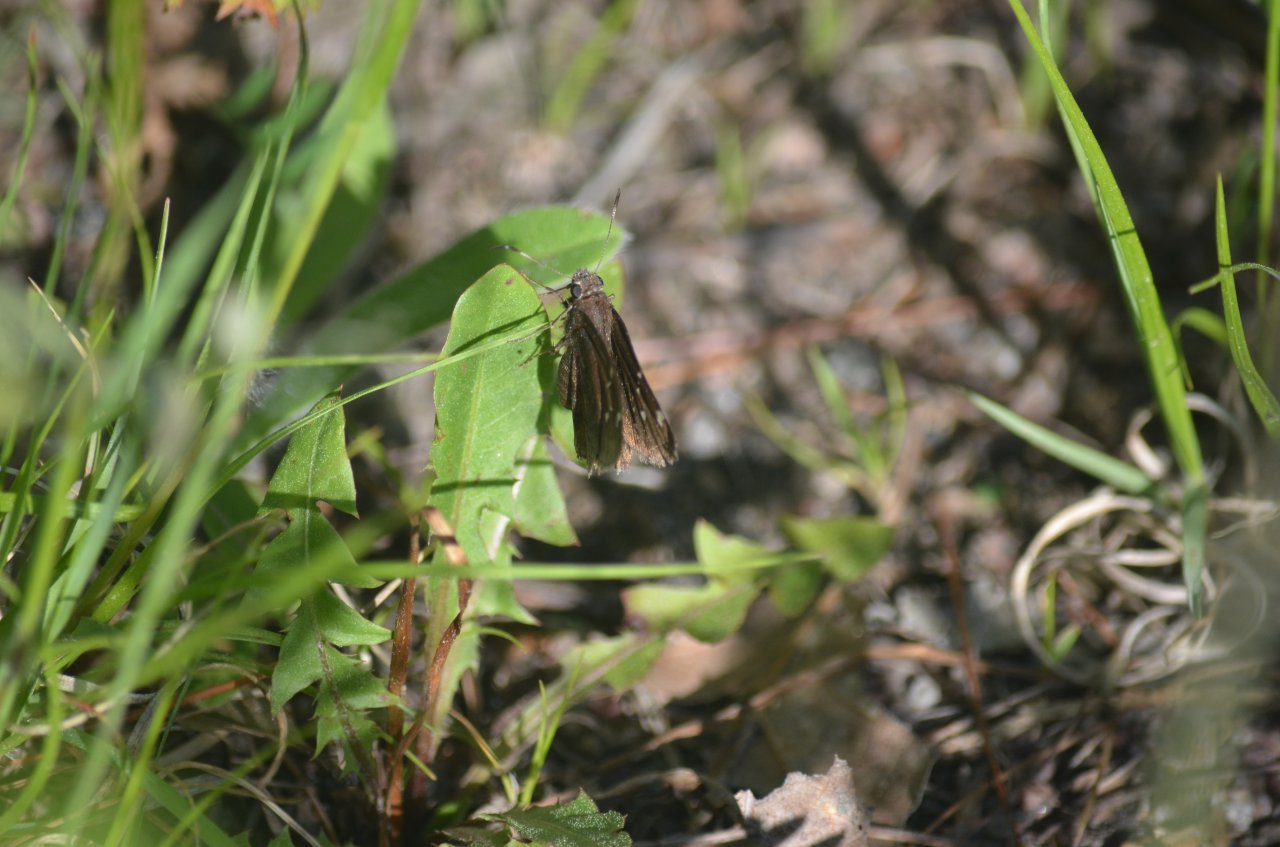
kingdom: Animalia
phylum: Arthropoda
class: Insecta
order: Lepidoptera
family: Hesperiidae
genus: Autochton
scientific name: Autochton
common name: Northern Cloudywing
